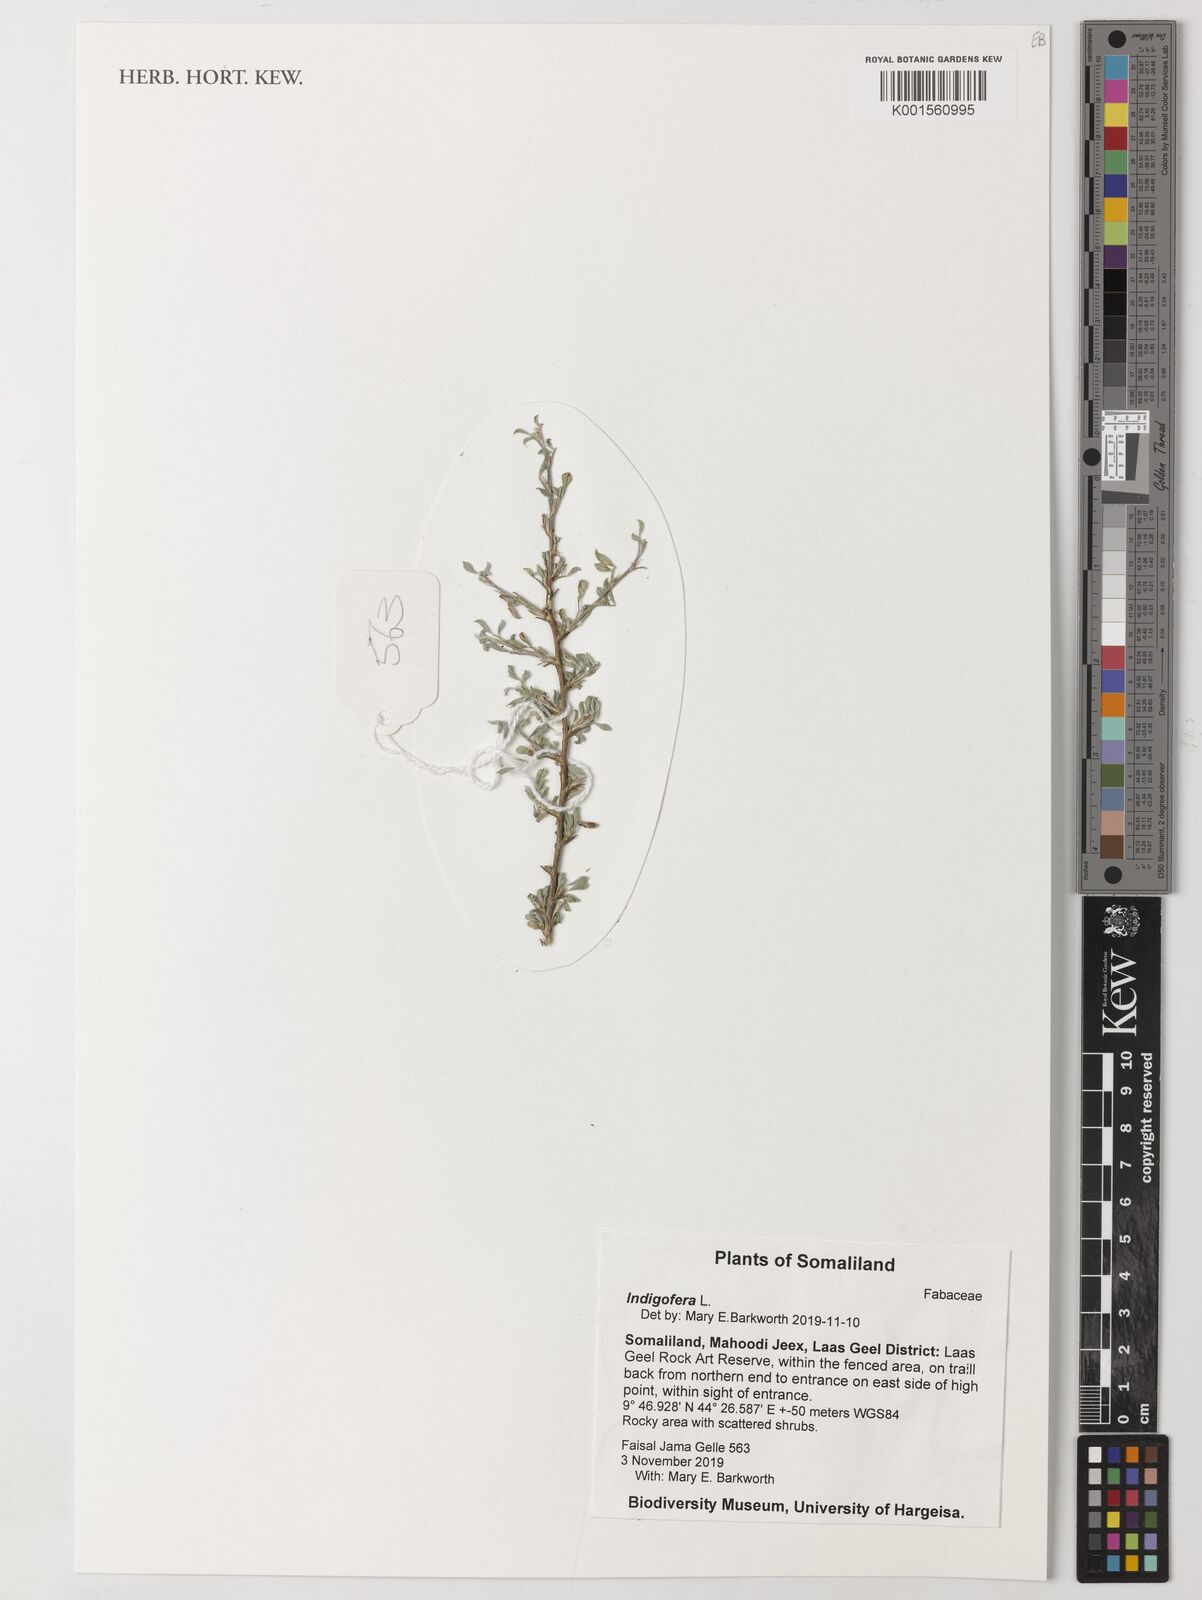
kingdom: Plantae
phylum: Tracheophyta
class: Magnoliopsida
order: Fabales
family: Fabaceae
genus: Indigofera
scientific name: Indigofera
